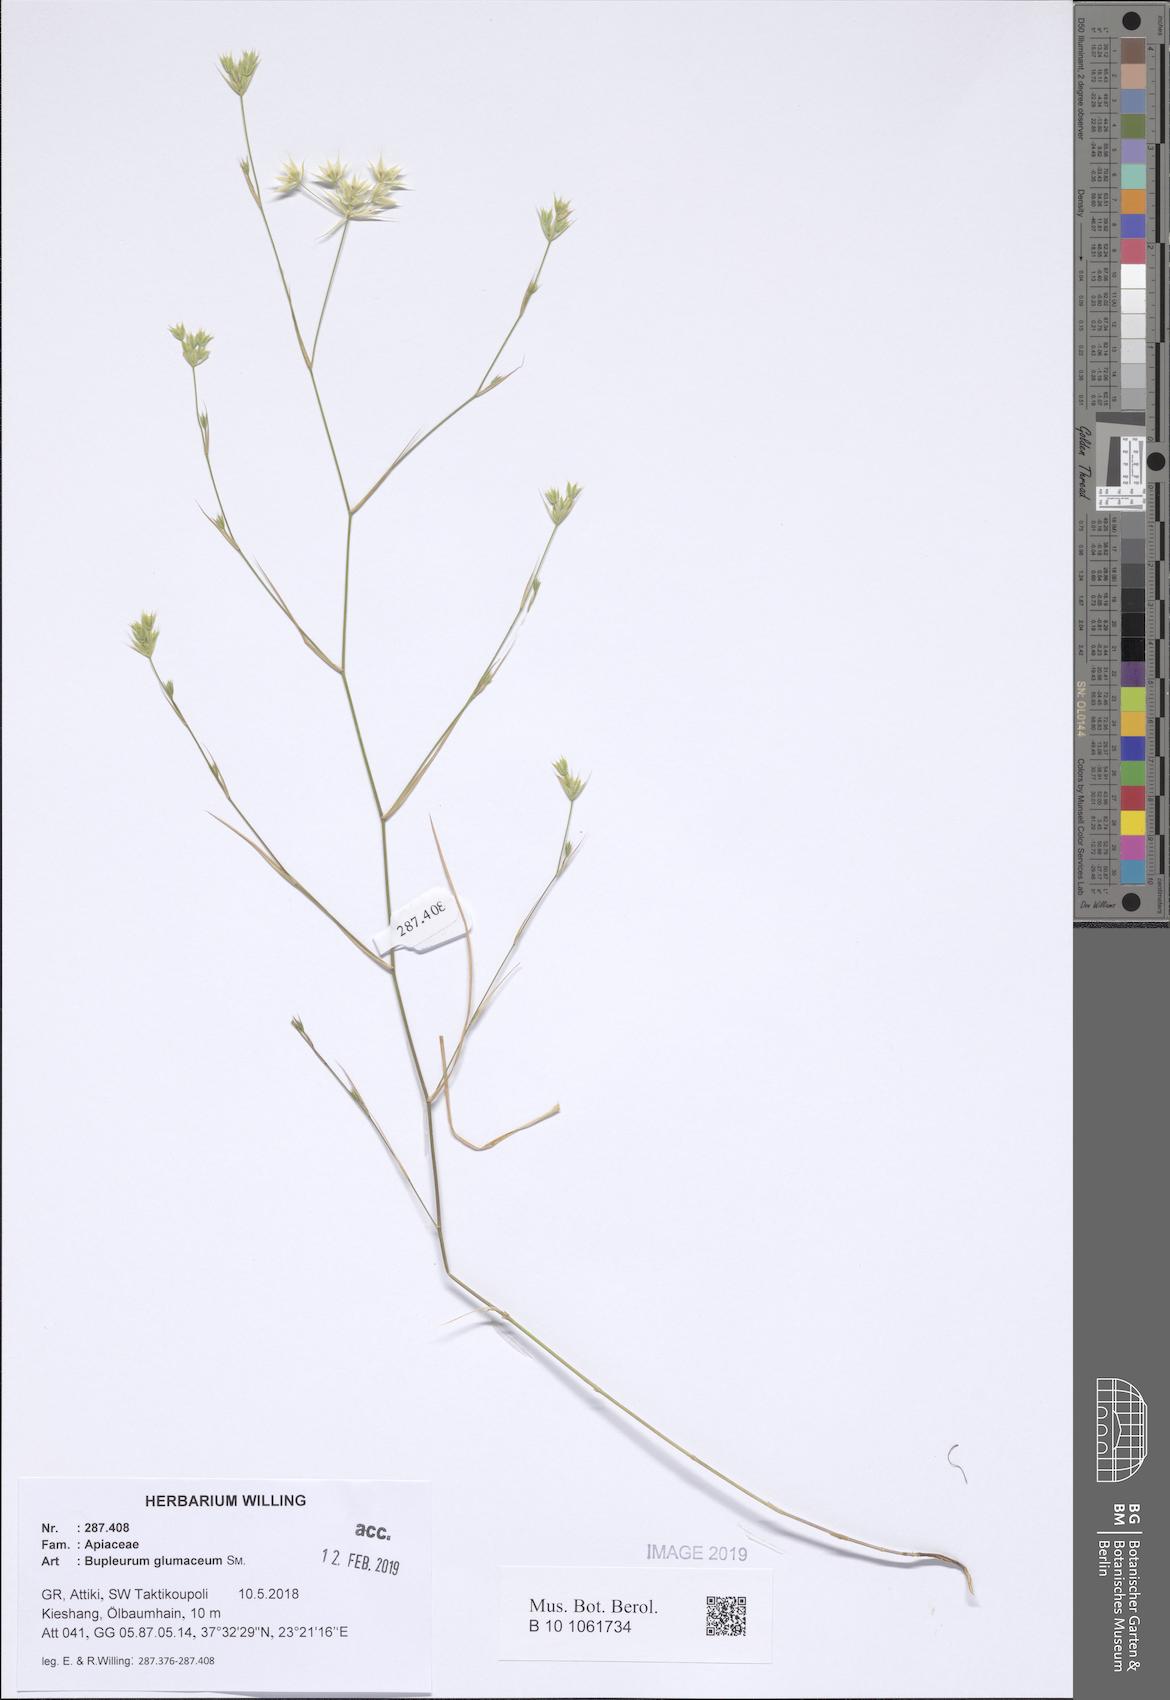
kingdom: Plantae
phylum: Tracheophyta
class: Magnoliopsida
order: Apiales
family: Apiaceae
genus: Bupleurum
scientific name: Bupleurum glumaceum
